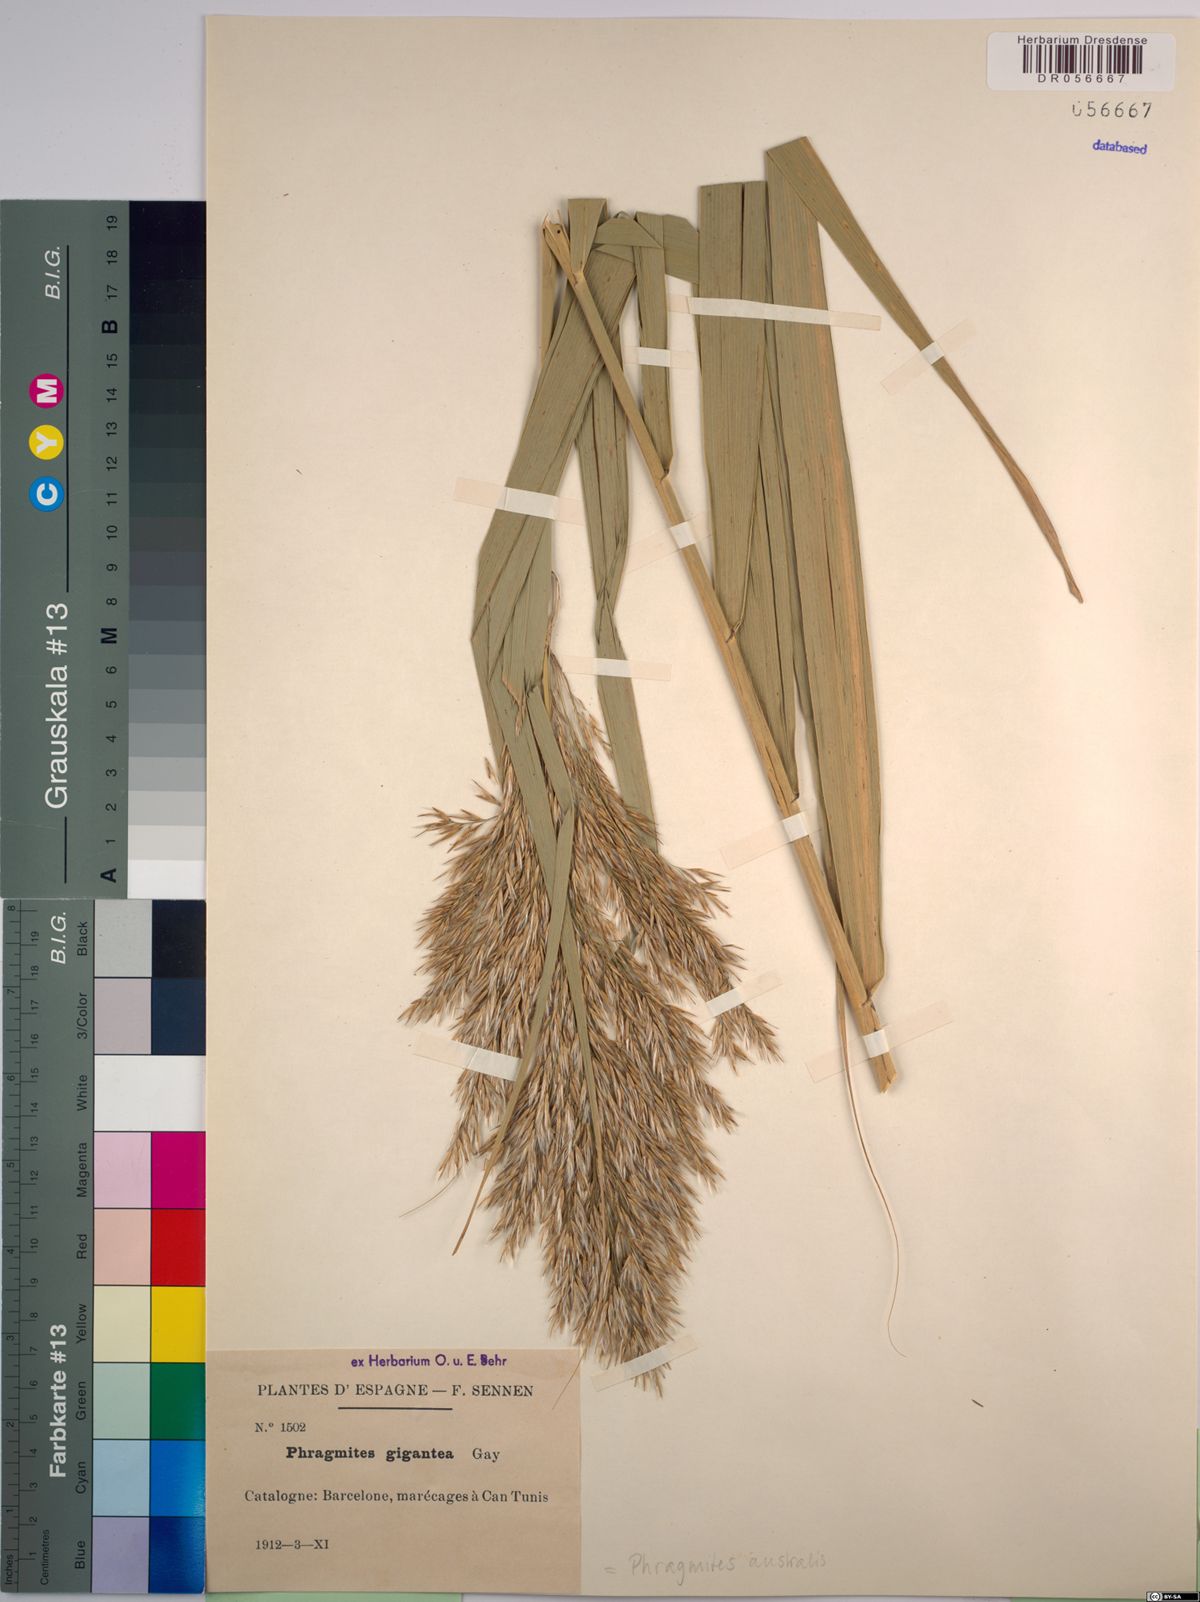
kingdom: Plantae
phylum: Tracheophyta
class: Liliopsida
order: Poales
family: Poaceae
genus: Phragmites
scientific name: Phragmites australis
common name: Common reed
